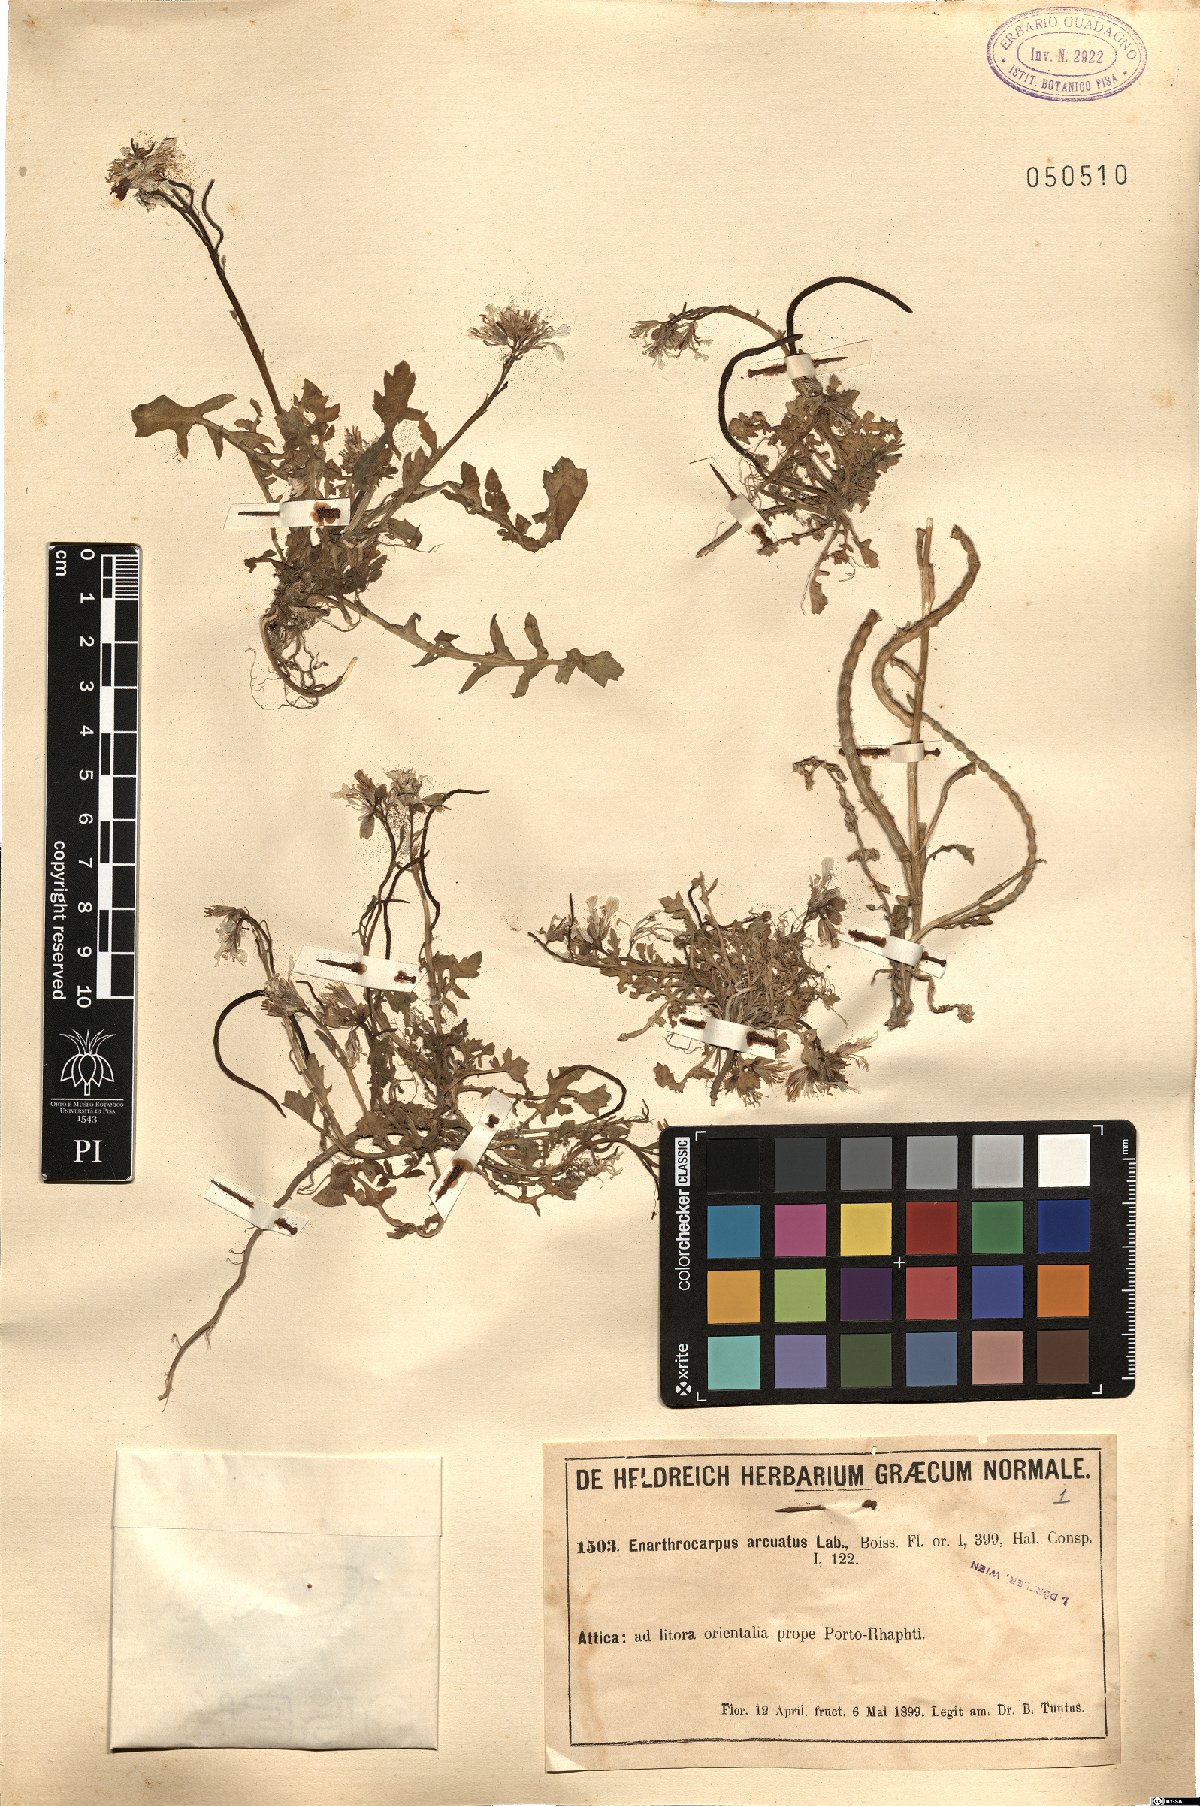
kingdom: Plantae
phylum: Tracheophyta
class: Magnoliopsida
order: Brassicales
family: Brassicaceae
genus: Enarthrocarpus
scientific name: Enarthrocarpus arcuatus
